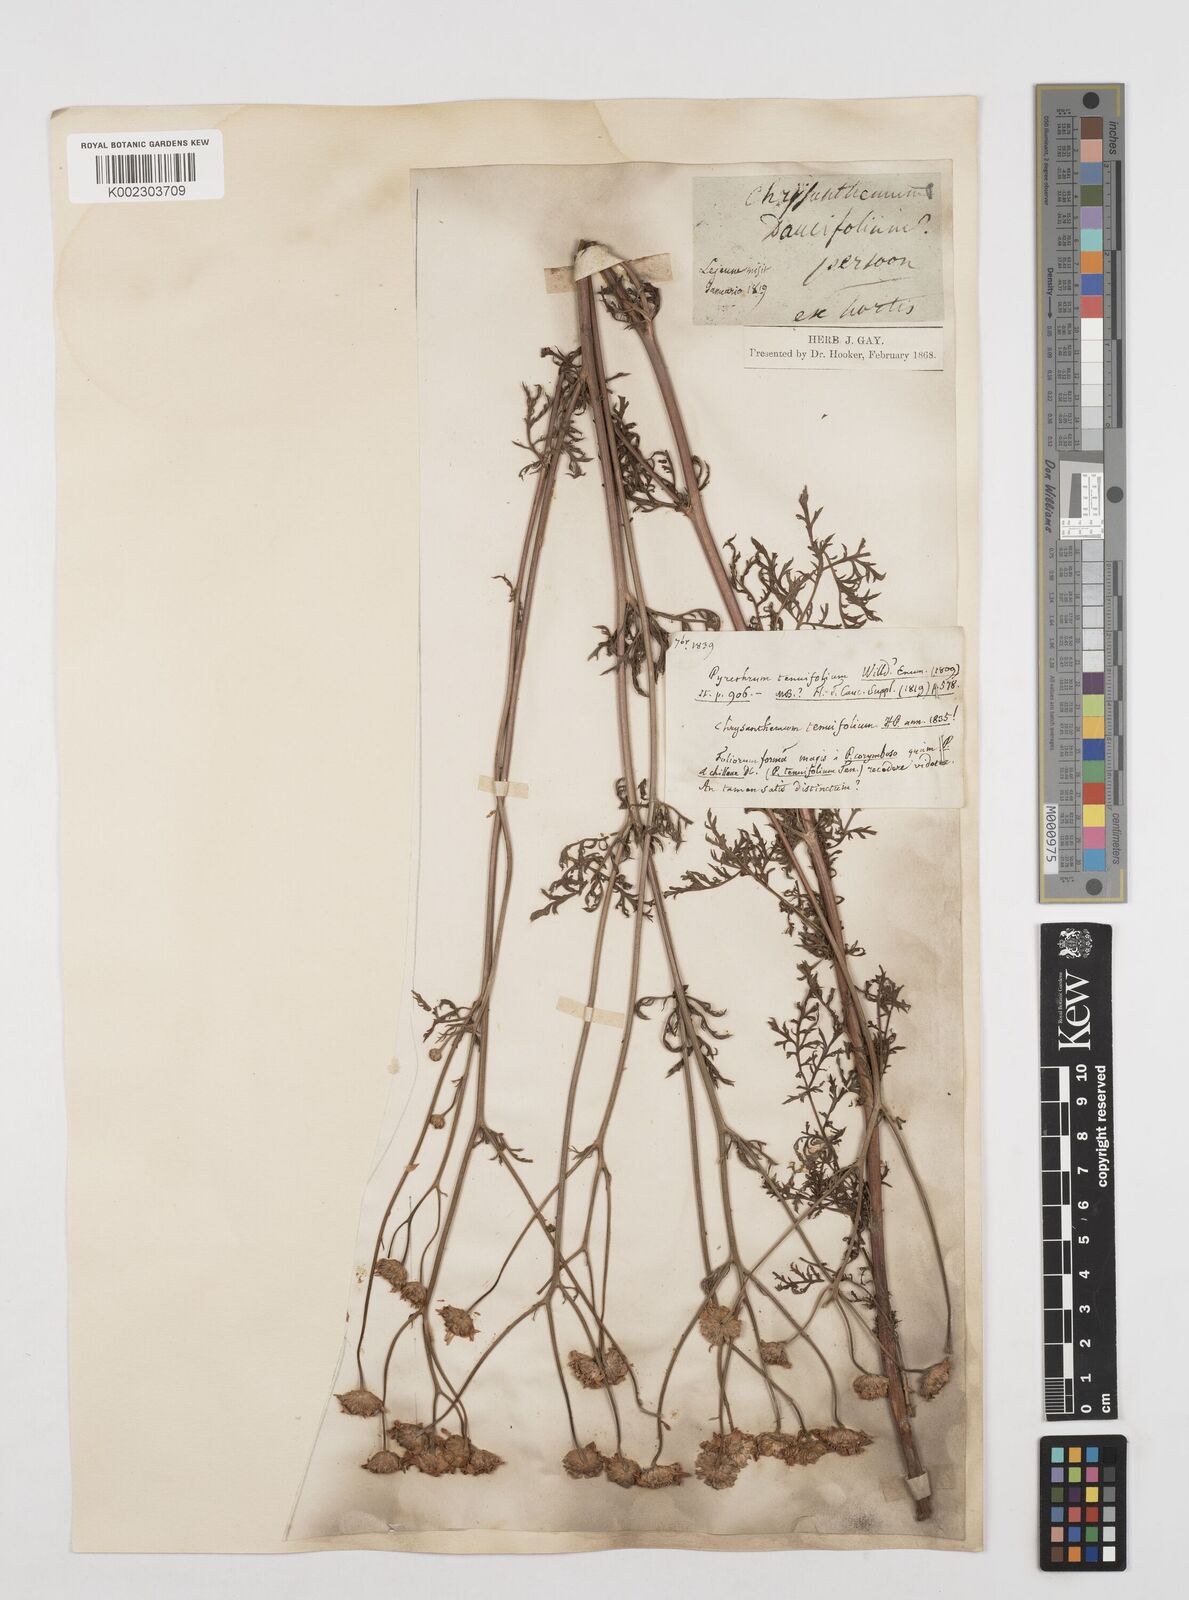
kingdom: Plantae
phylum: Tracheophyta
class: Magnoliopsida
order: Asterales
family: Asteraceae
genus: Tanacetum
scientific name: Tanacetum achilleae
